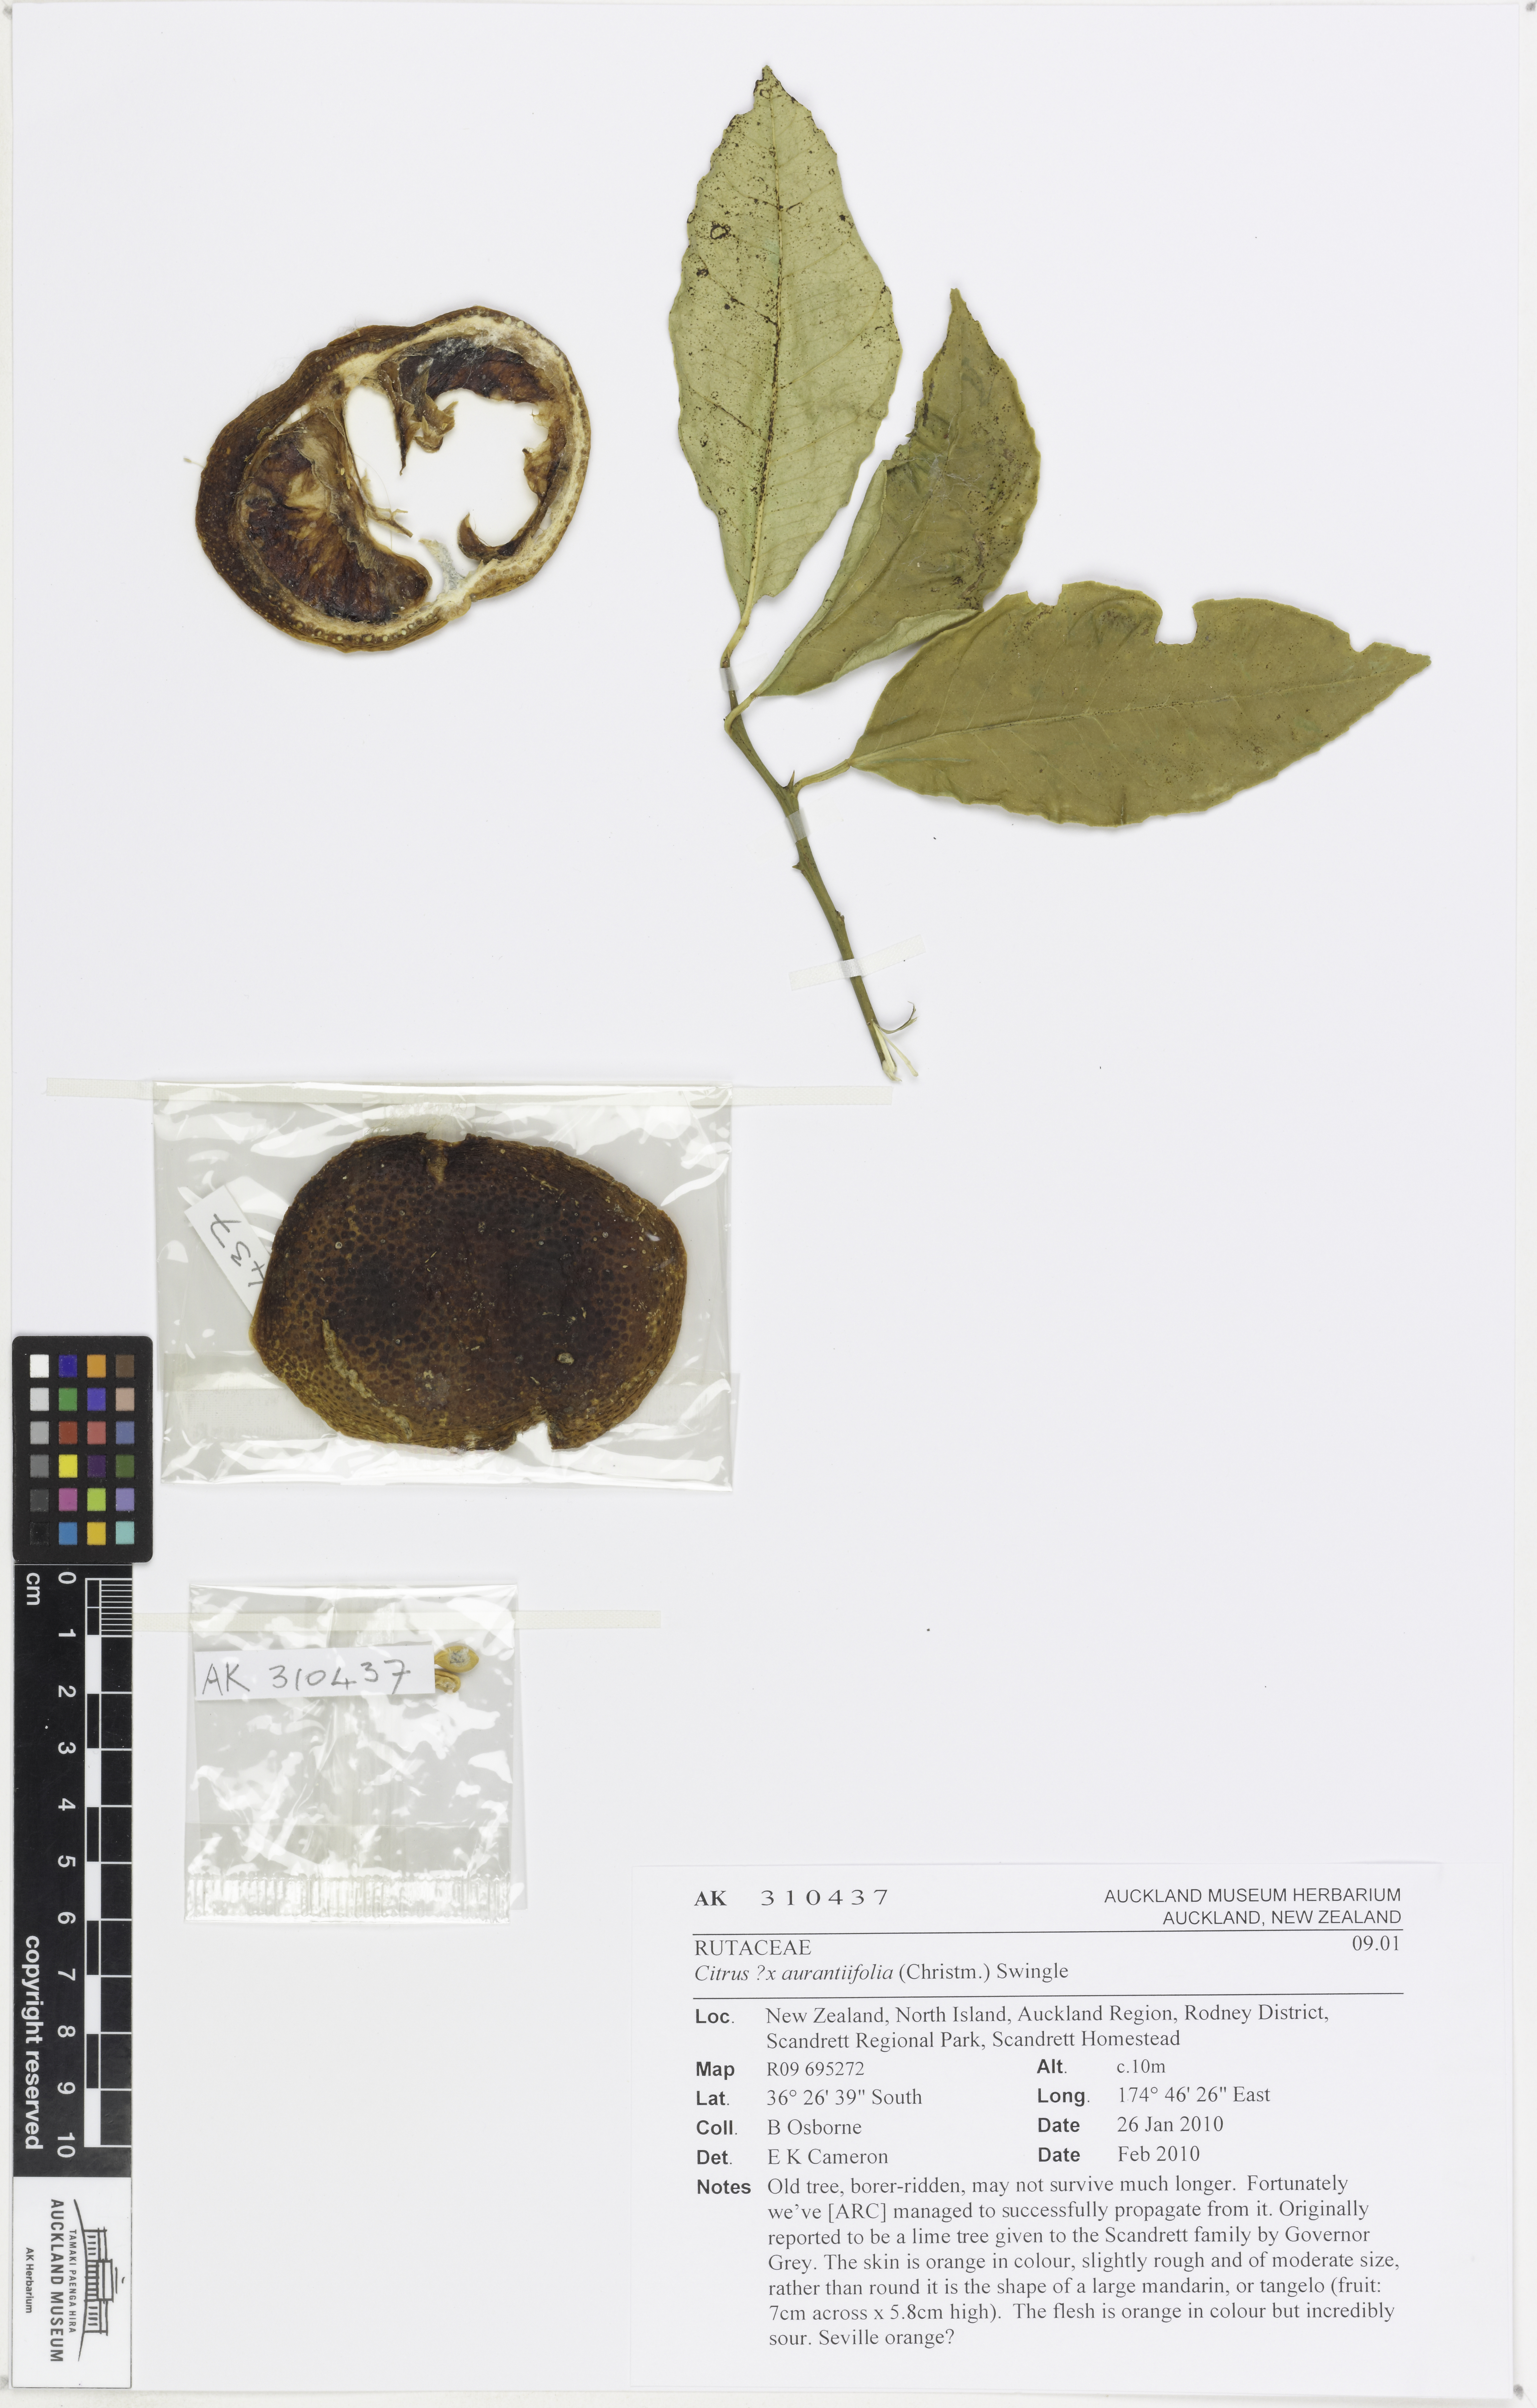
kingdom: Plantae
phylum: Tracheophyta
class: Magnoliopsida
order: Sapindales
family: Rutaceae
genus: Citrus
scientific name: Citrus aurantiifolia
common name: Key lime
